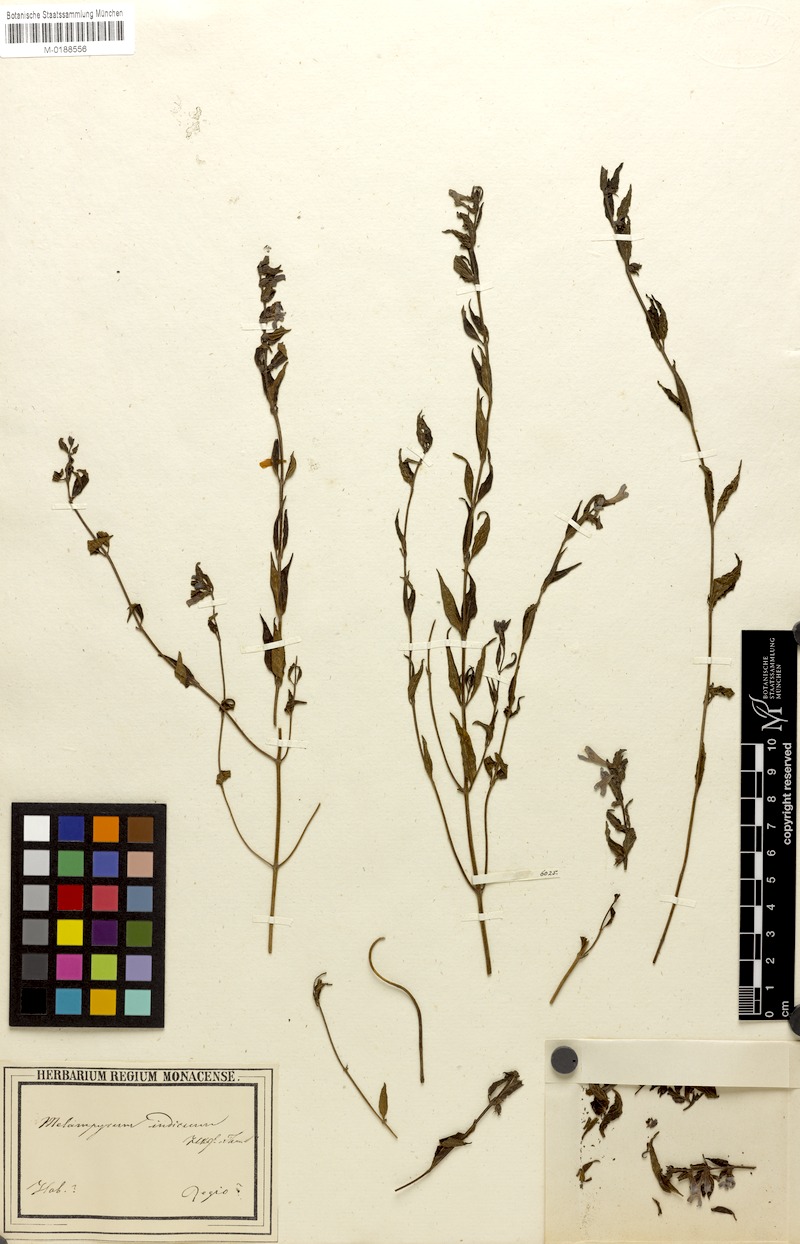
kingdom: Plantae
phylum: Tracheophyta
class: Magnoliopsida
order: Lamiales
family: Orobanchaceae
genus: Melampyrum
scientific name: Melampyrum indicum
